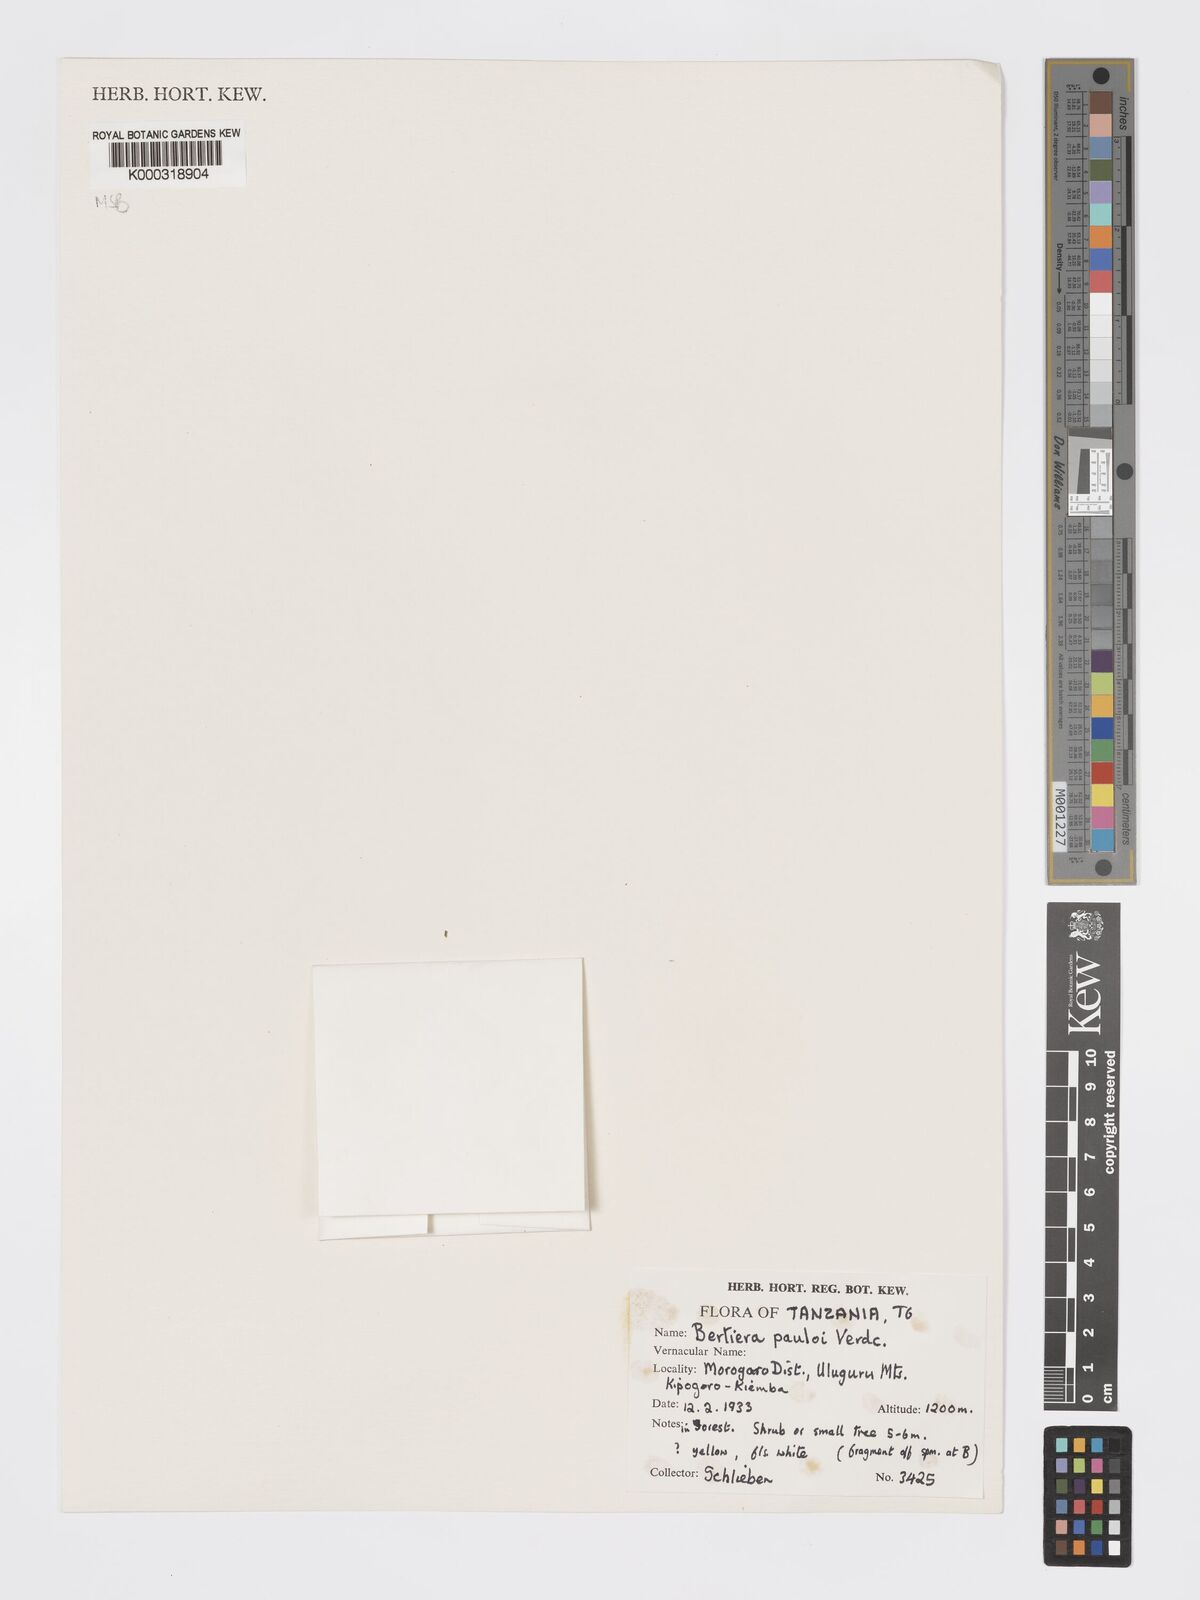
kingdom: Plantae
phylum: Tracheophyta
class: Magnoliopsida
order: Gentianales
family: Rubiaceae
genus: Bertiera
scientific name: Bertiera pauloi
